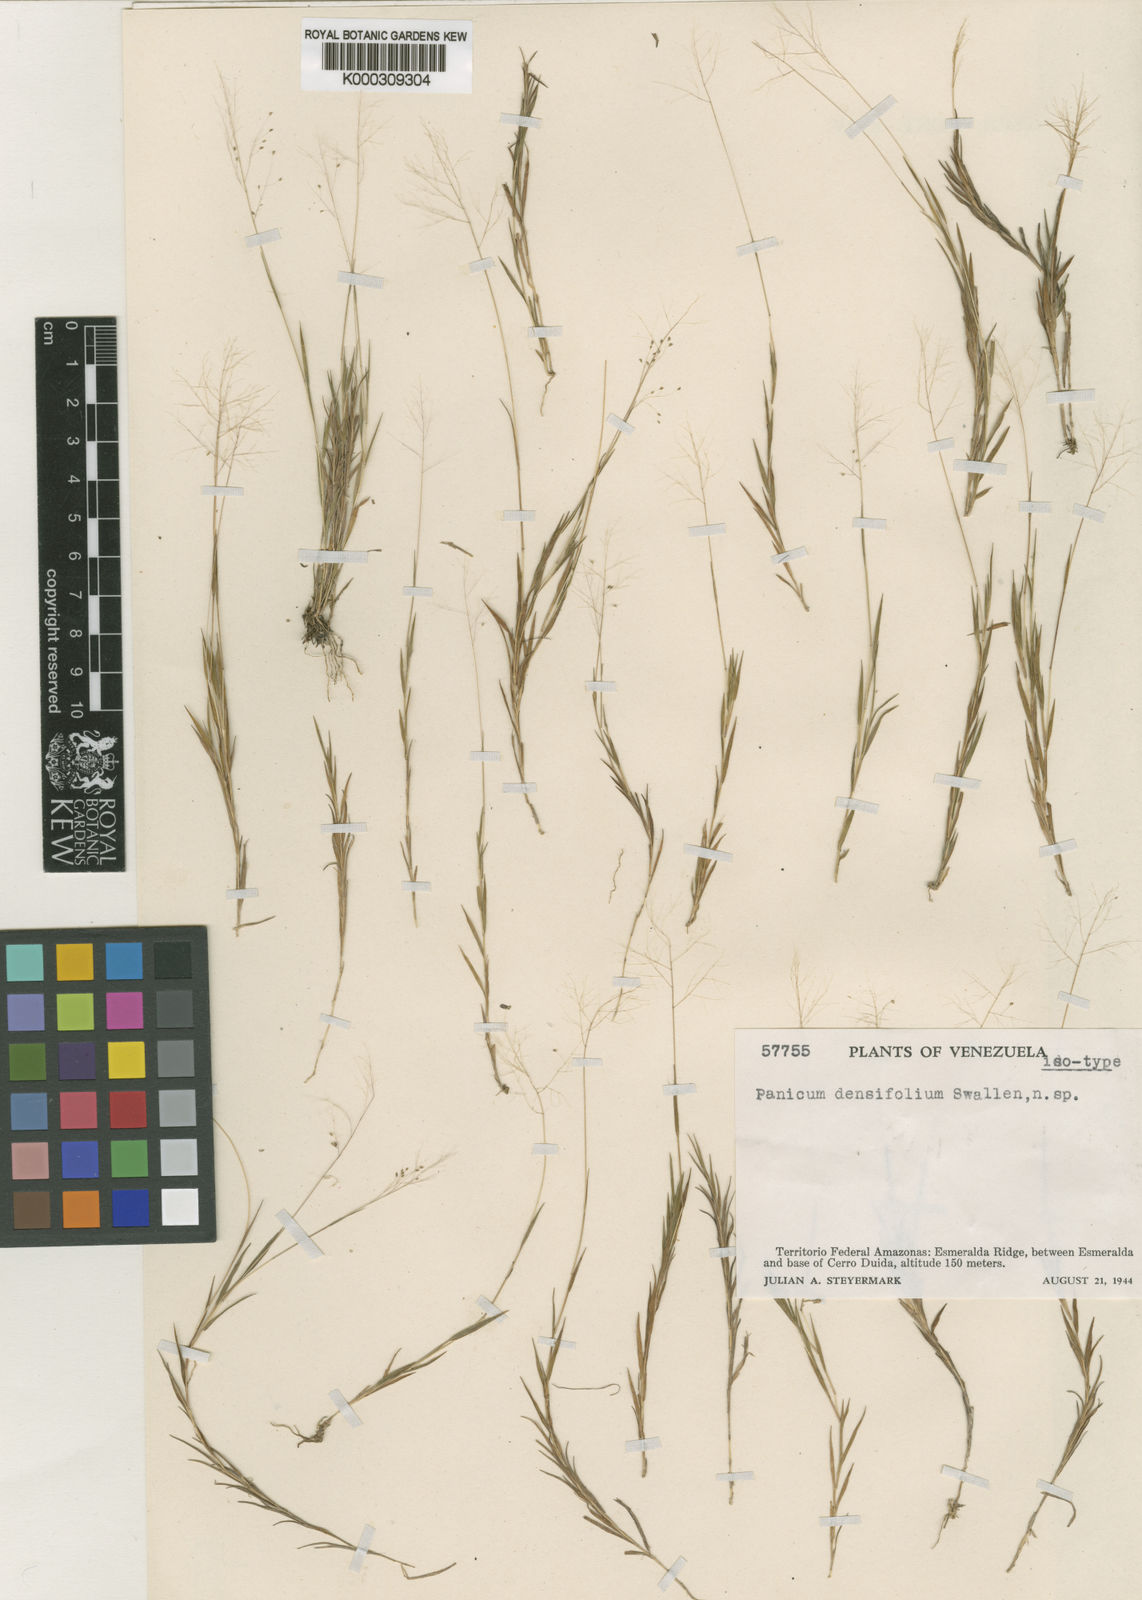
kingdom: Plantae
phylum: Tracheophyta
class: Liliopsida
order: Poales
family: Poaceae
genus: Trichanthecium
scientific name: Trichanthecium micranthum
